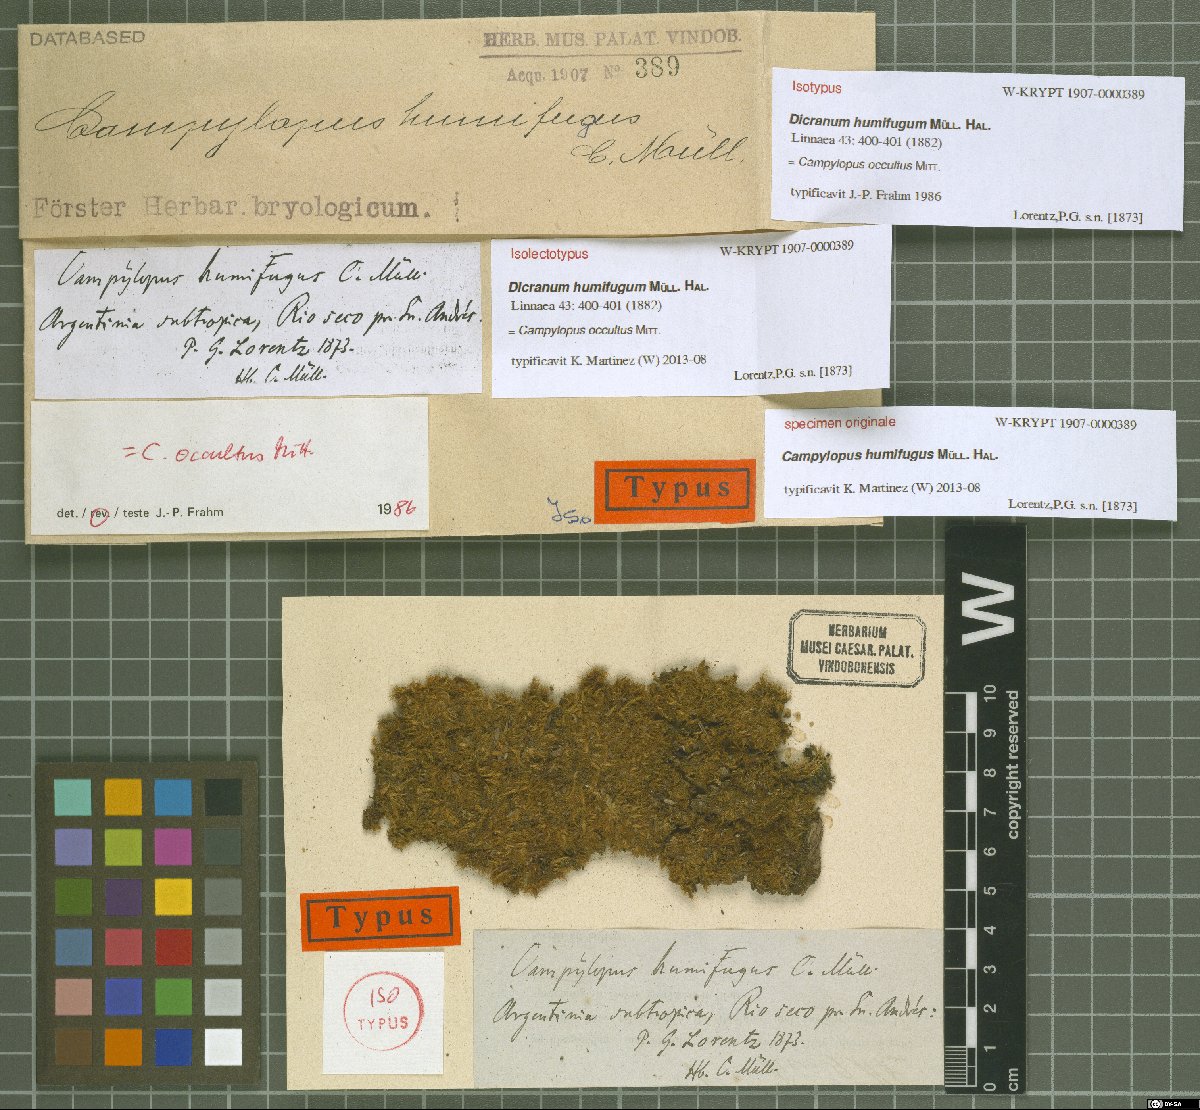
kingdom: Plantae
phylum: Bryophyta
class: Bryopsida
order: Dicranales
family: Leucobryaceae
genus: Campylopus
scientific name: Campylopus occultus
